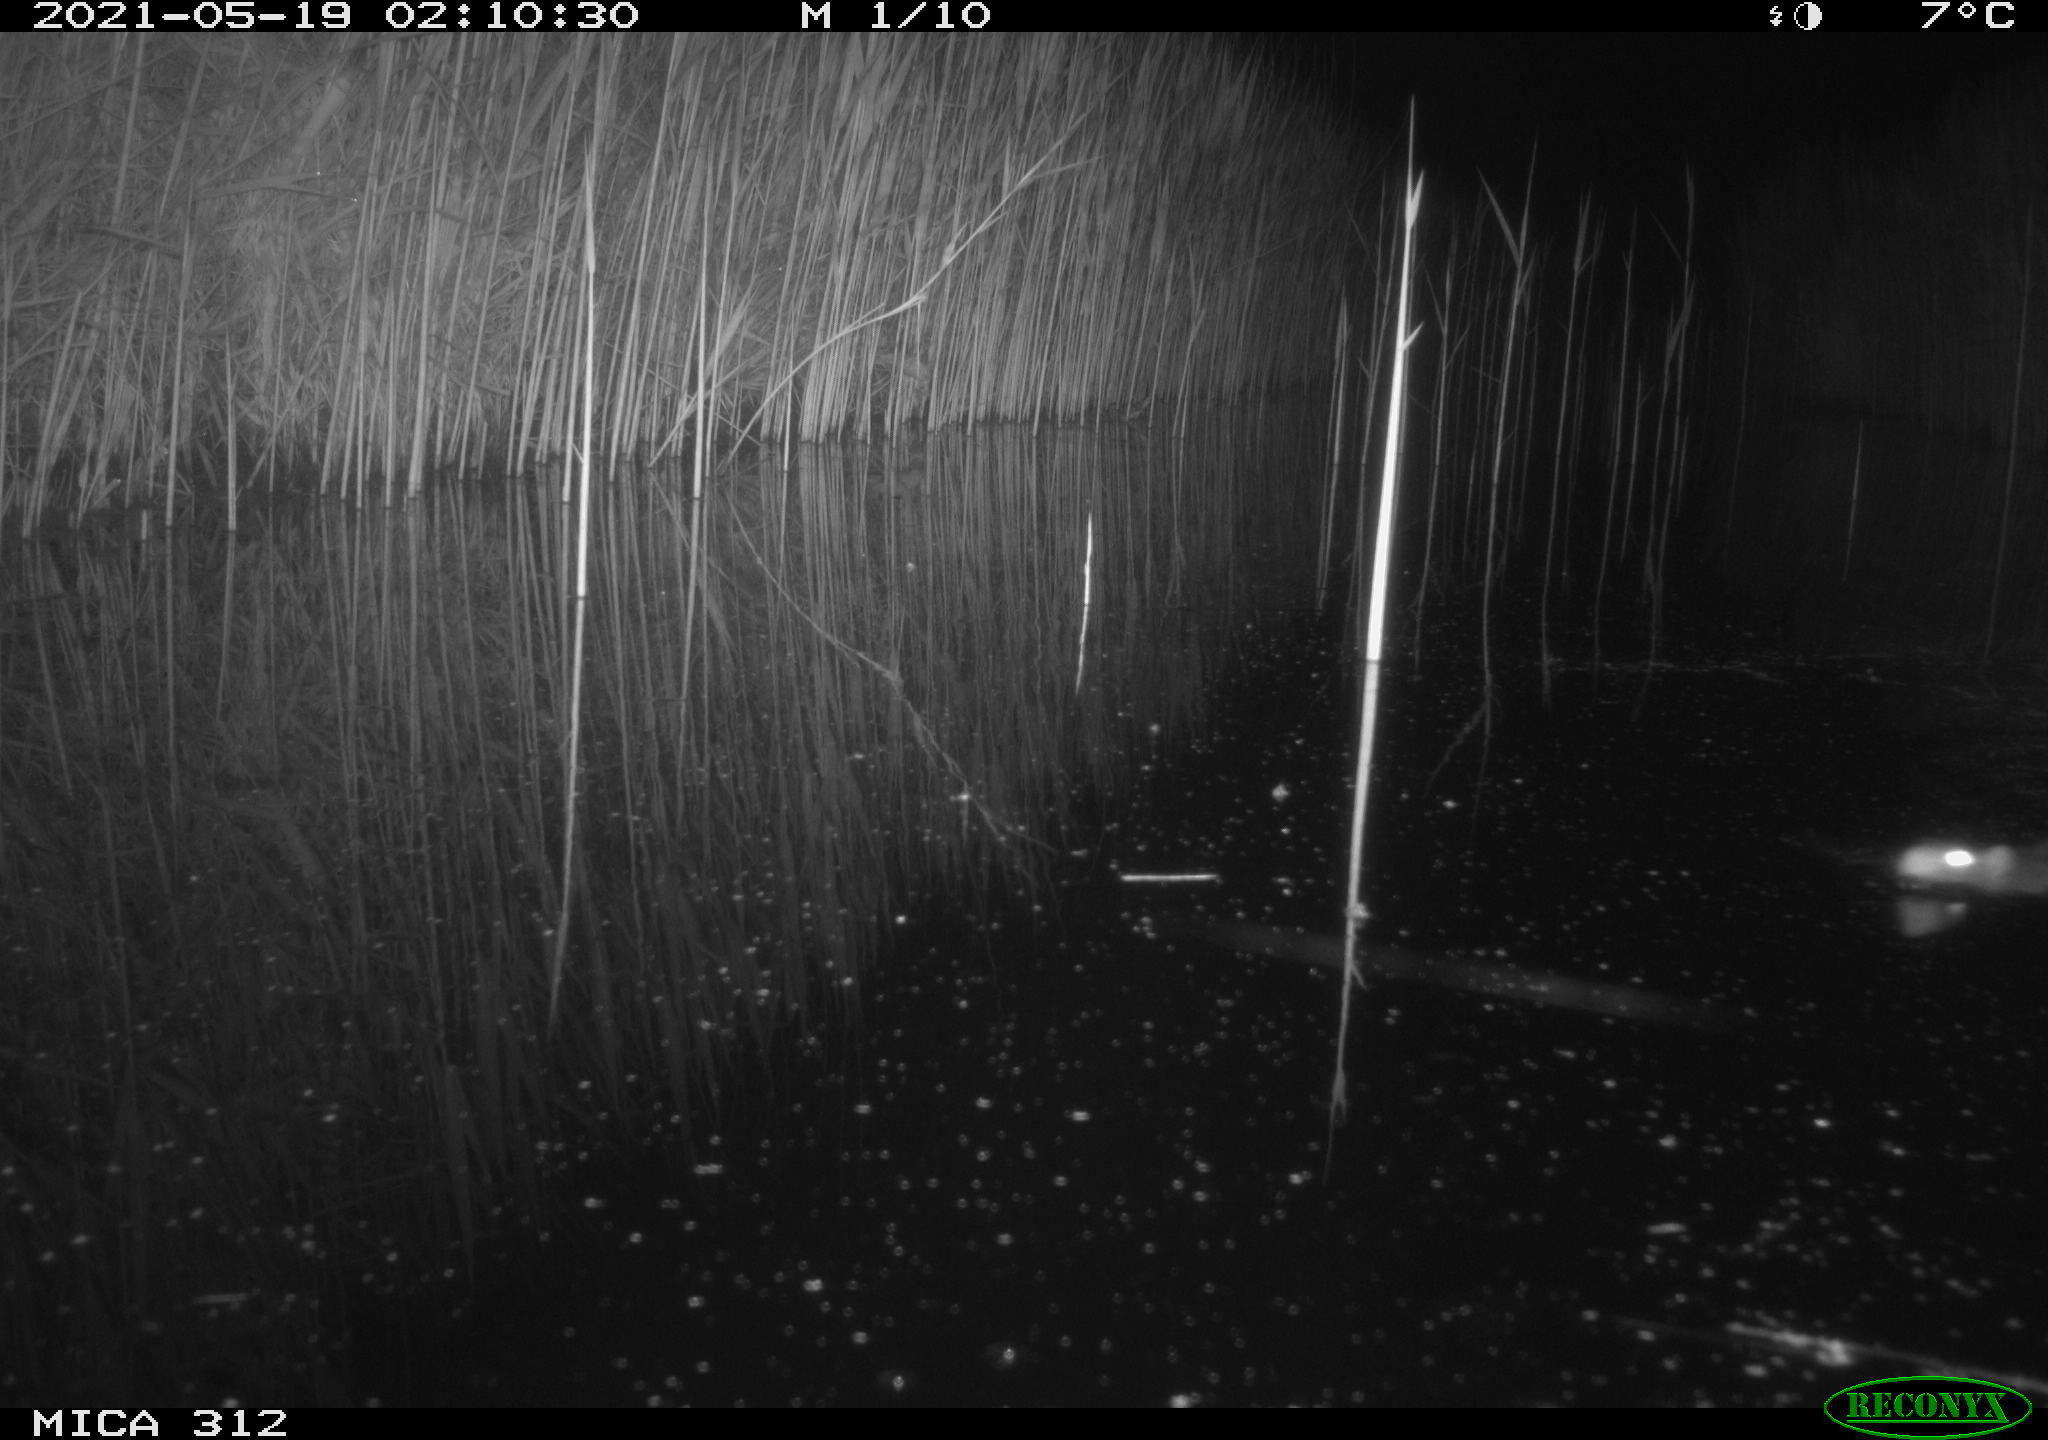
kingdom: Animalia
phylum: Chordata
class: Mammalia
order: Rodentia
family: Muridae
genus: Rattus
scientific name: Rattus norvegicus
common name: Brown rat
